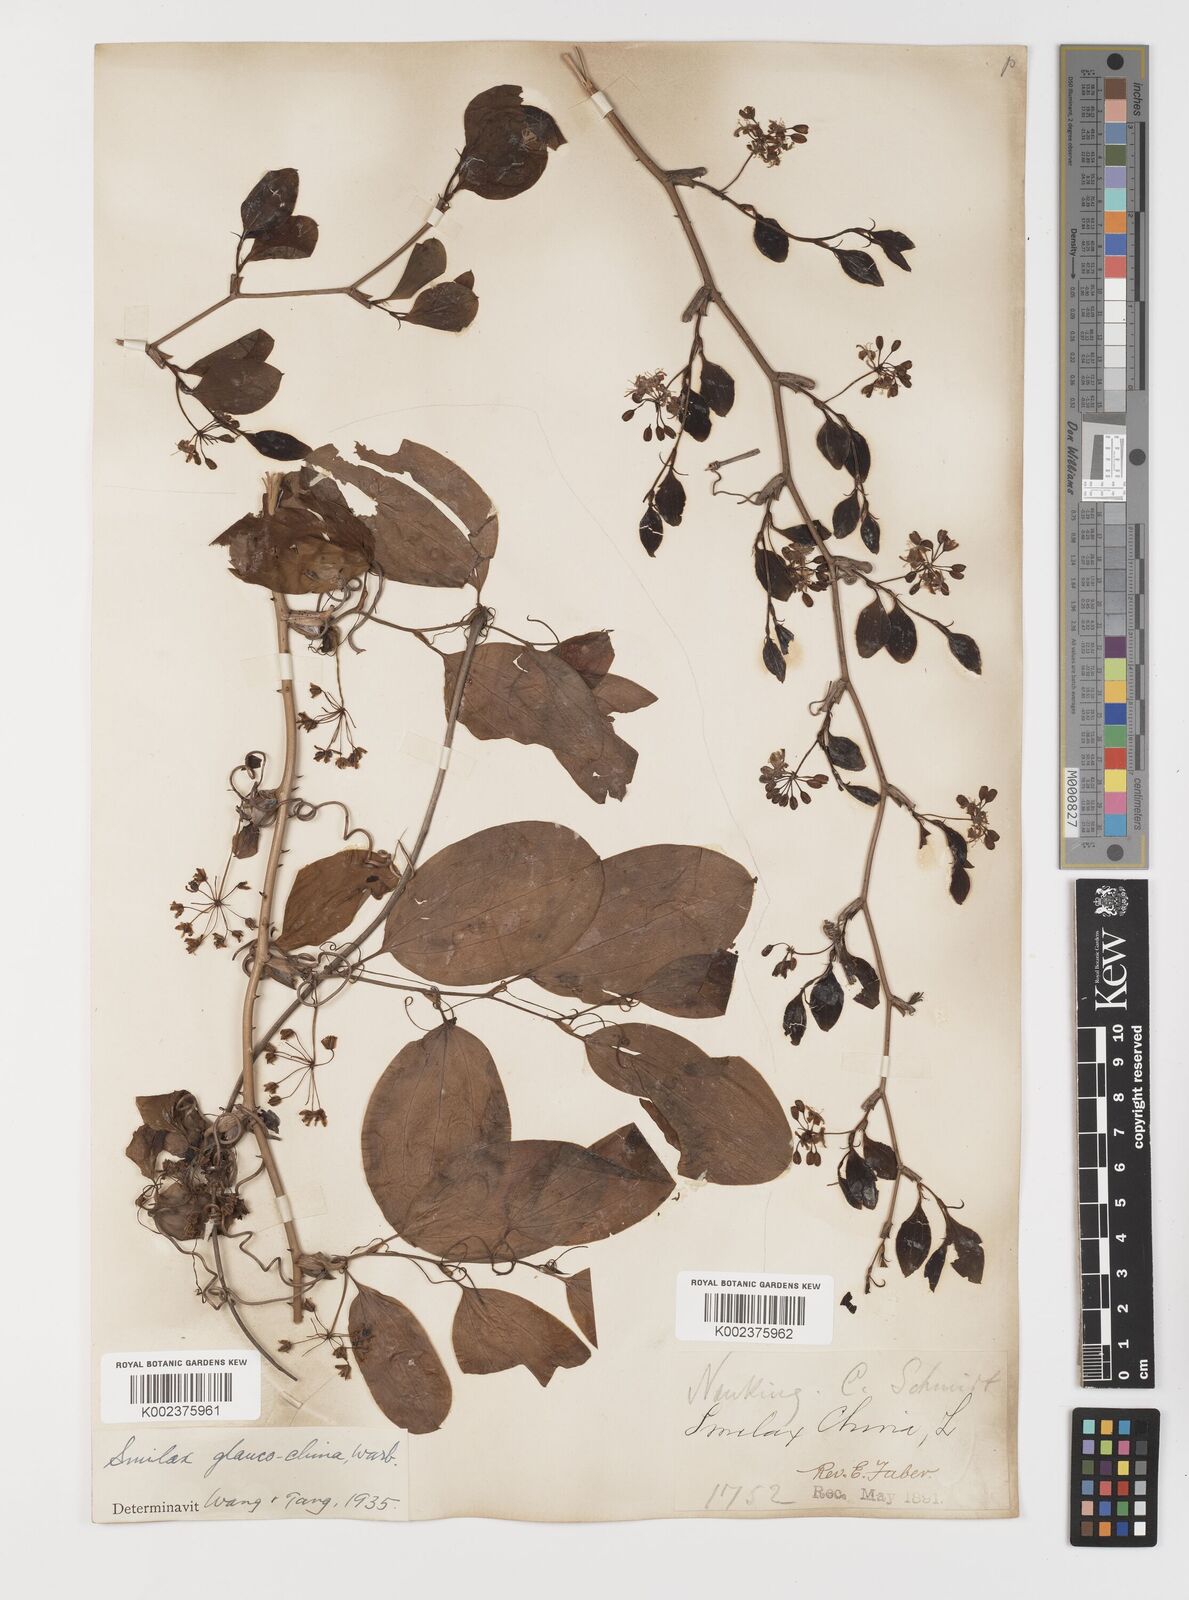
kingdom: Plantae
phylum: Tracheophyta
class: Liliopsida
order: Liliales
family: Smilacaceae
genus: Smilax
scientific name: Smilax glaucochina
